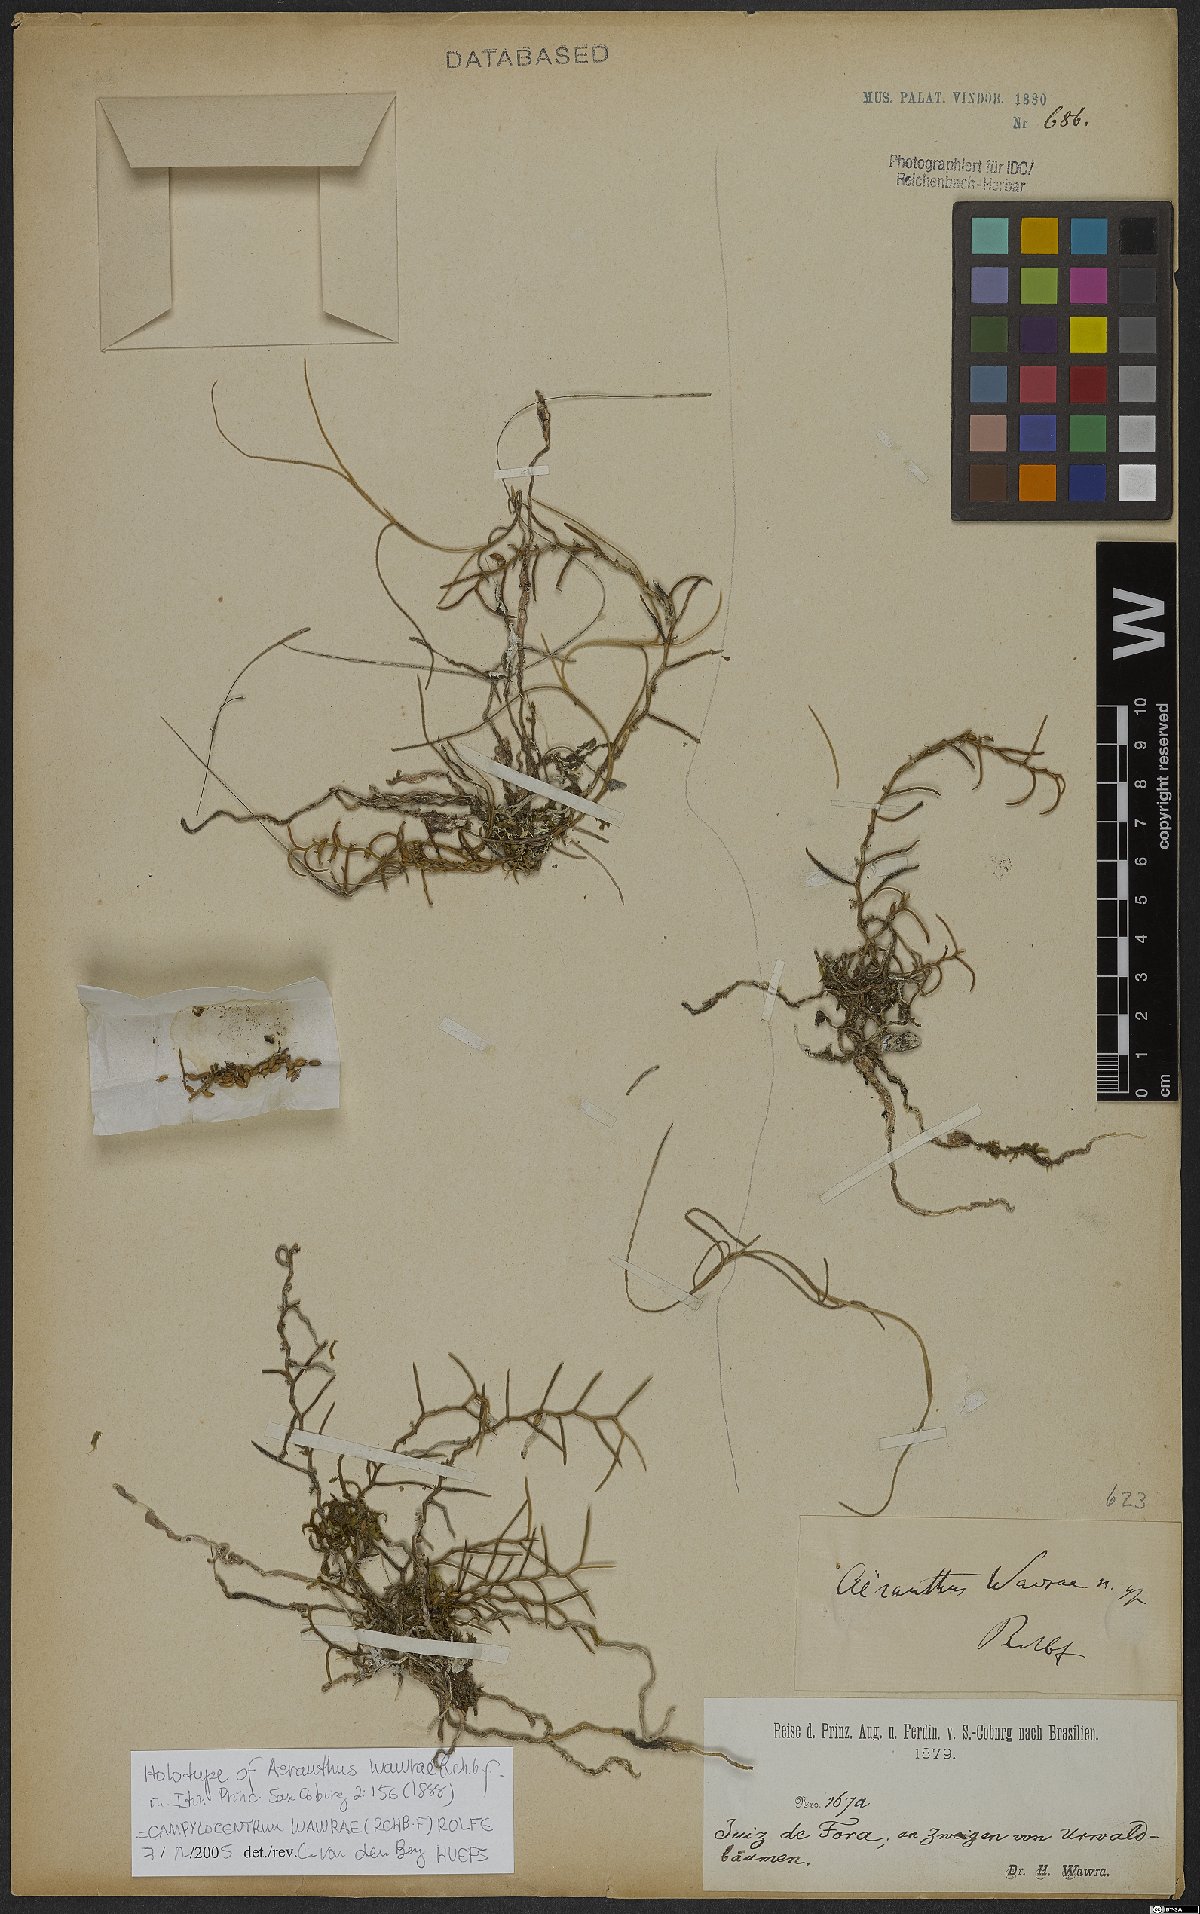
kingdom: Plantae
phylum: Tracheophyta
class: Liliopsida
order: Asparagales
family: Orchidaceae
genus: Campylocentrum
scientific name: Campylocentrum wawrae
